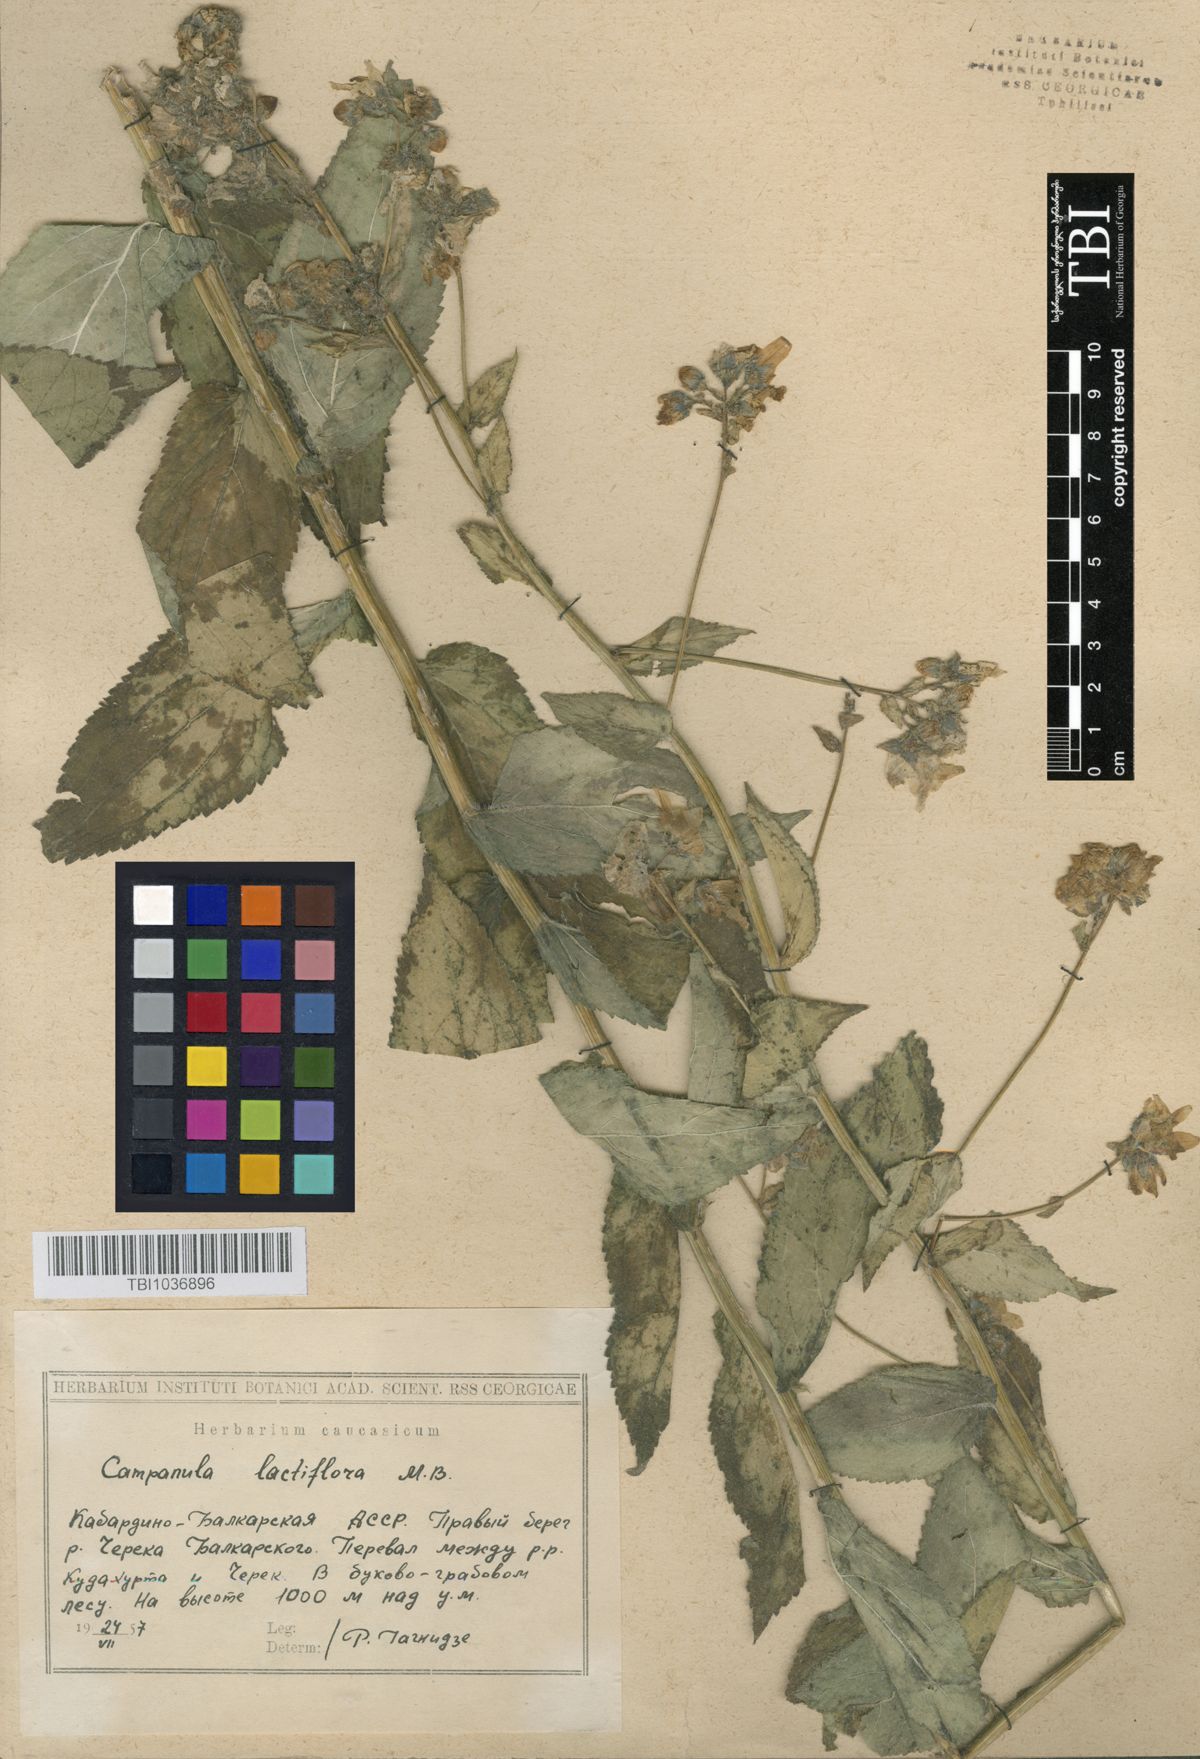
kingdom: Plantae
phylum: Tracheophyta
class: Magnoliopsida
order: Asterales
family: Campanulaceae
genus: Campanula
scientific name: Campanula lactiflora
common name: Milky bellflower
